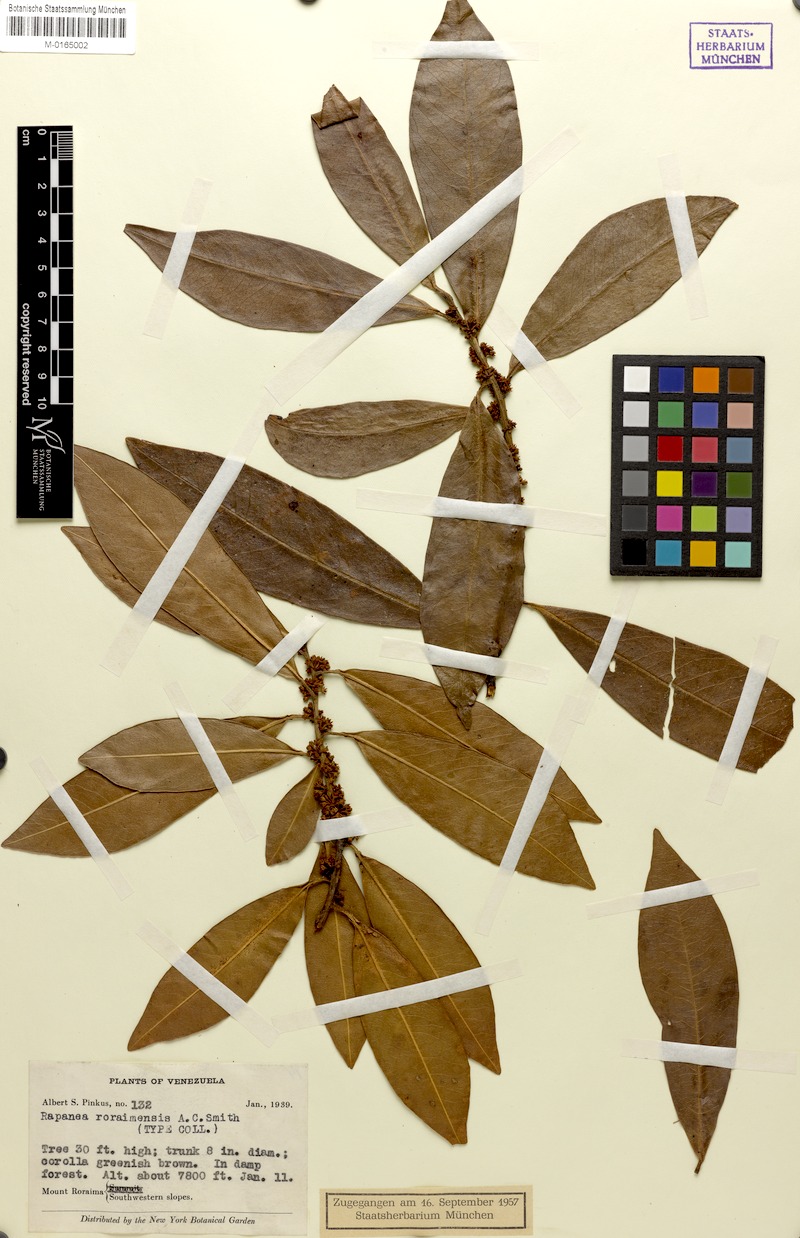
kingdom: Plantae
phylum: Tracheophyta
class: Magnoliopsida
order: Ericales
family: Primulaceae
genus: Myrsine
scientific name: Myrsine nitida
